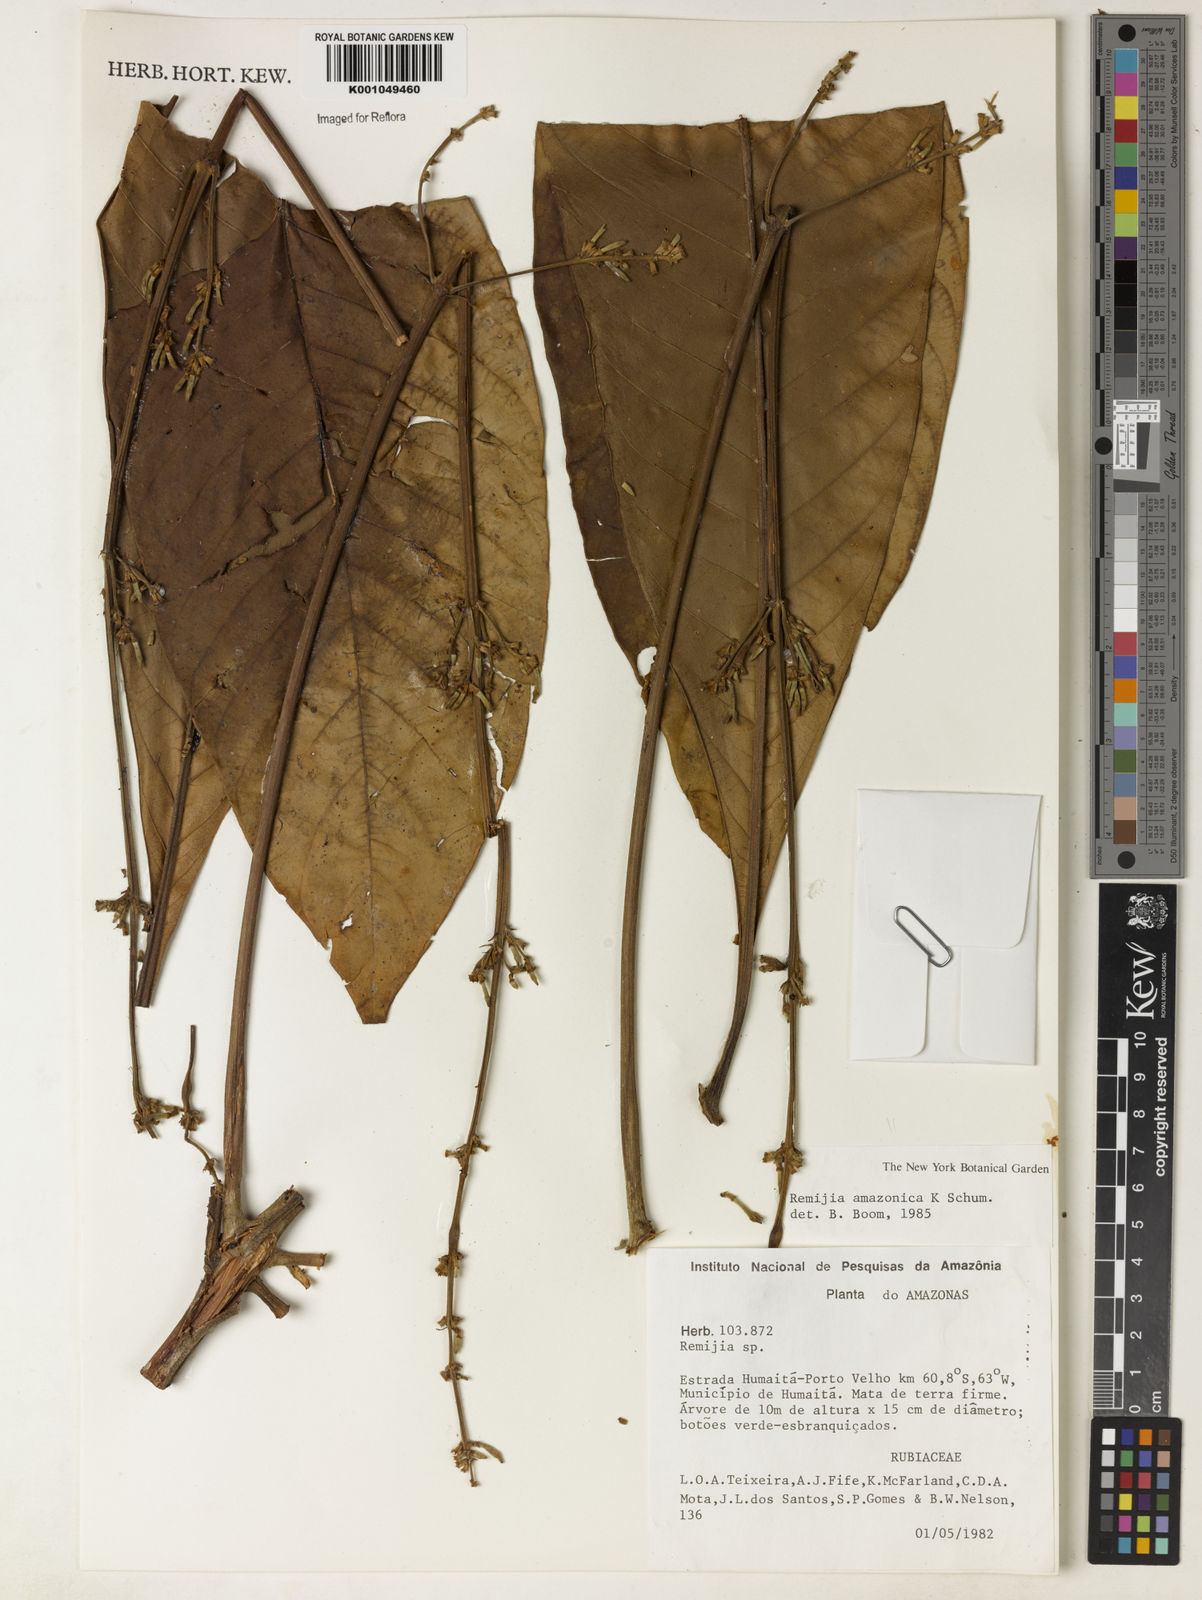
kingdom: Plantae
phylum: Tracheophyta
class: Magnoliopsida
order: Gentianales
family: Rubiaceae
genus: Remijia
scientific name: Remijia amazonica
